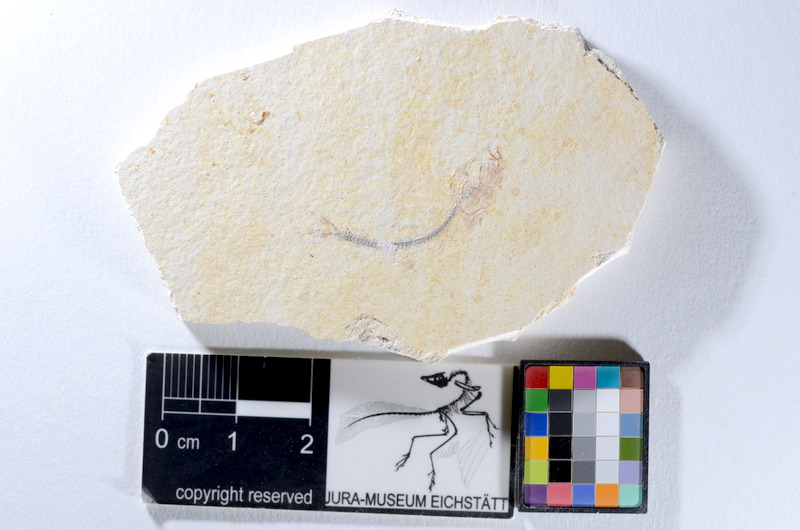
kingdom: Animalia
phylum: Chordata
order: Salmoniformes
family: Orthogonikleithridae
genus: Orthogonikleithrus
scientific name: Orthogonikleithrus hoelli
